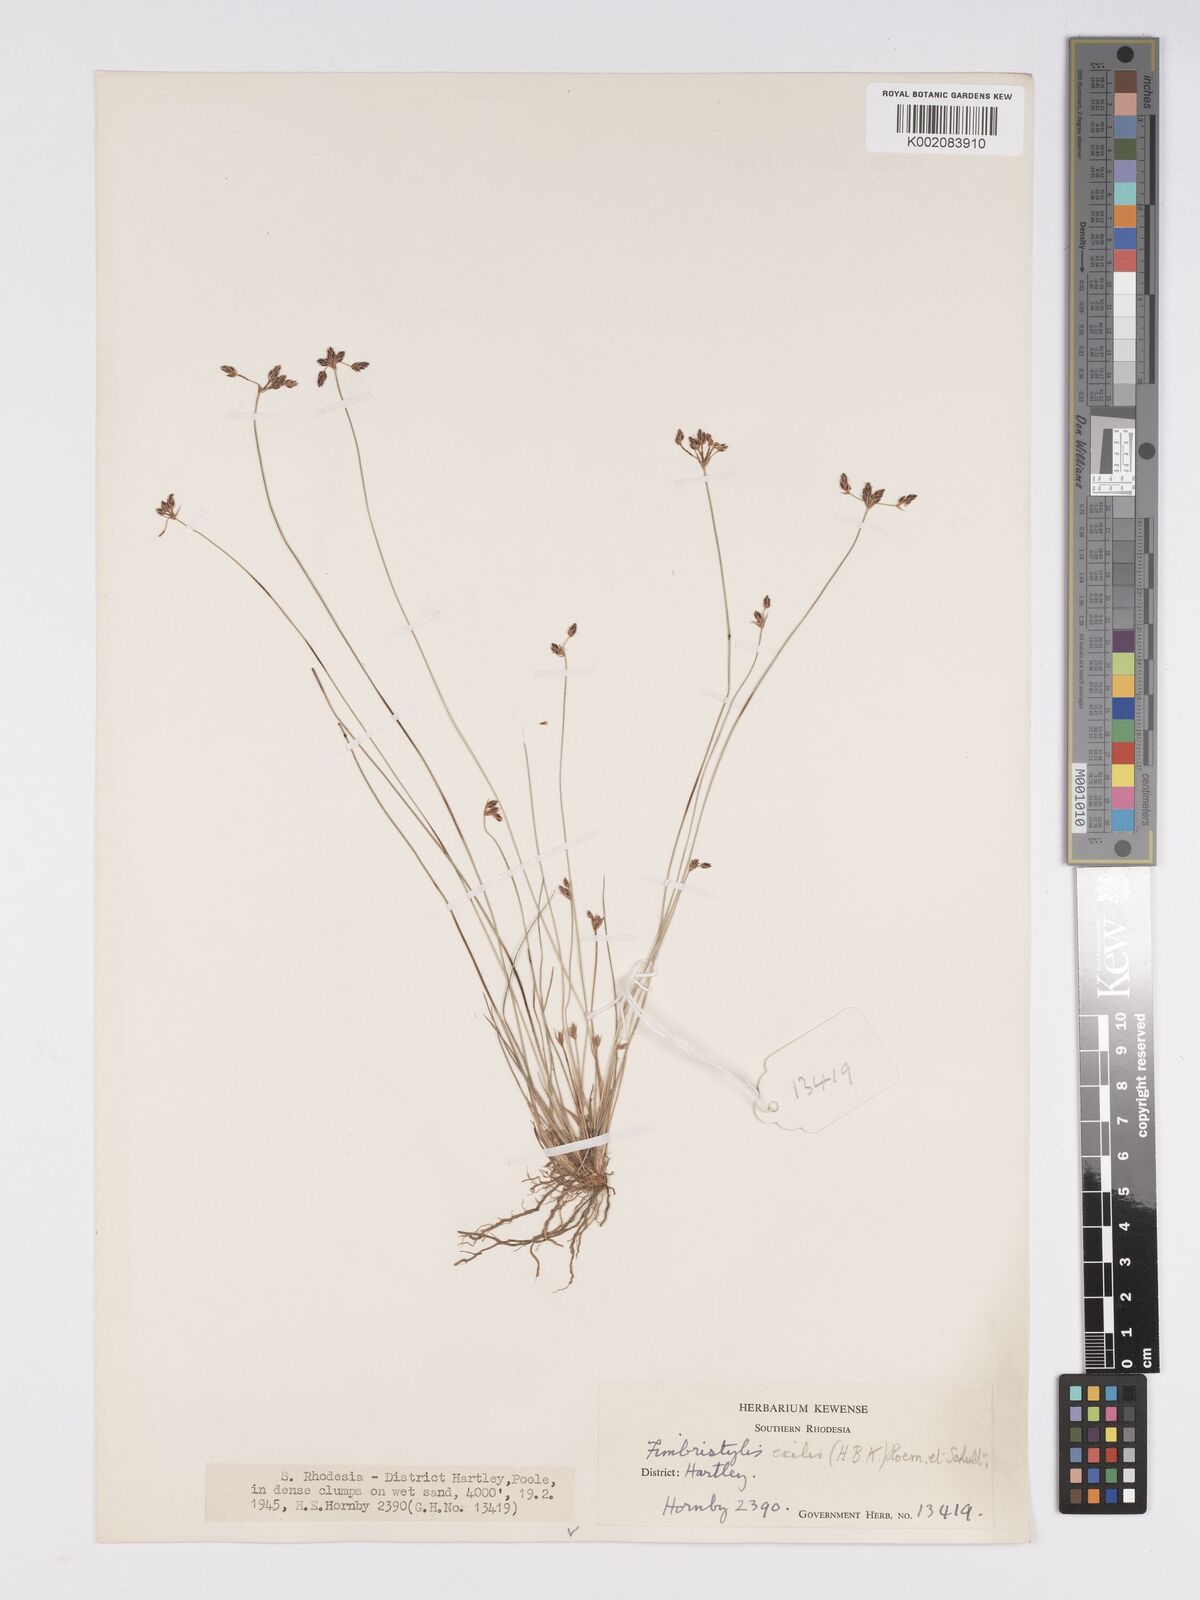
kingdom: Plantae
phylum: Tracheophyta
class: Liliopsida
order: Poales
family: Cyperaceae
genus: Bulbostylis
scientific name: Bulbostylis hispidula
